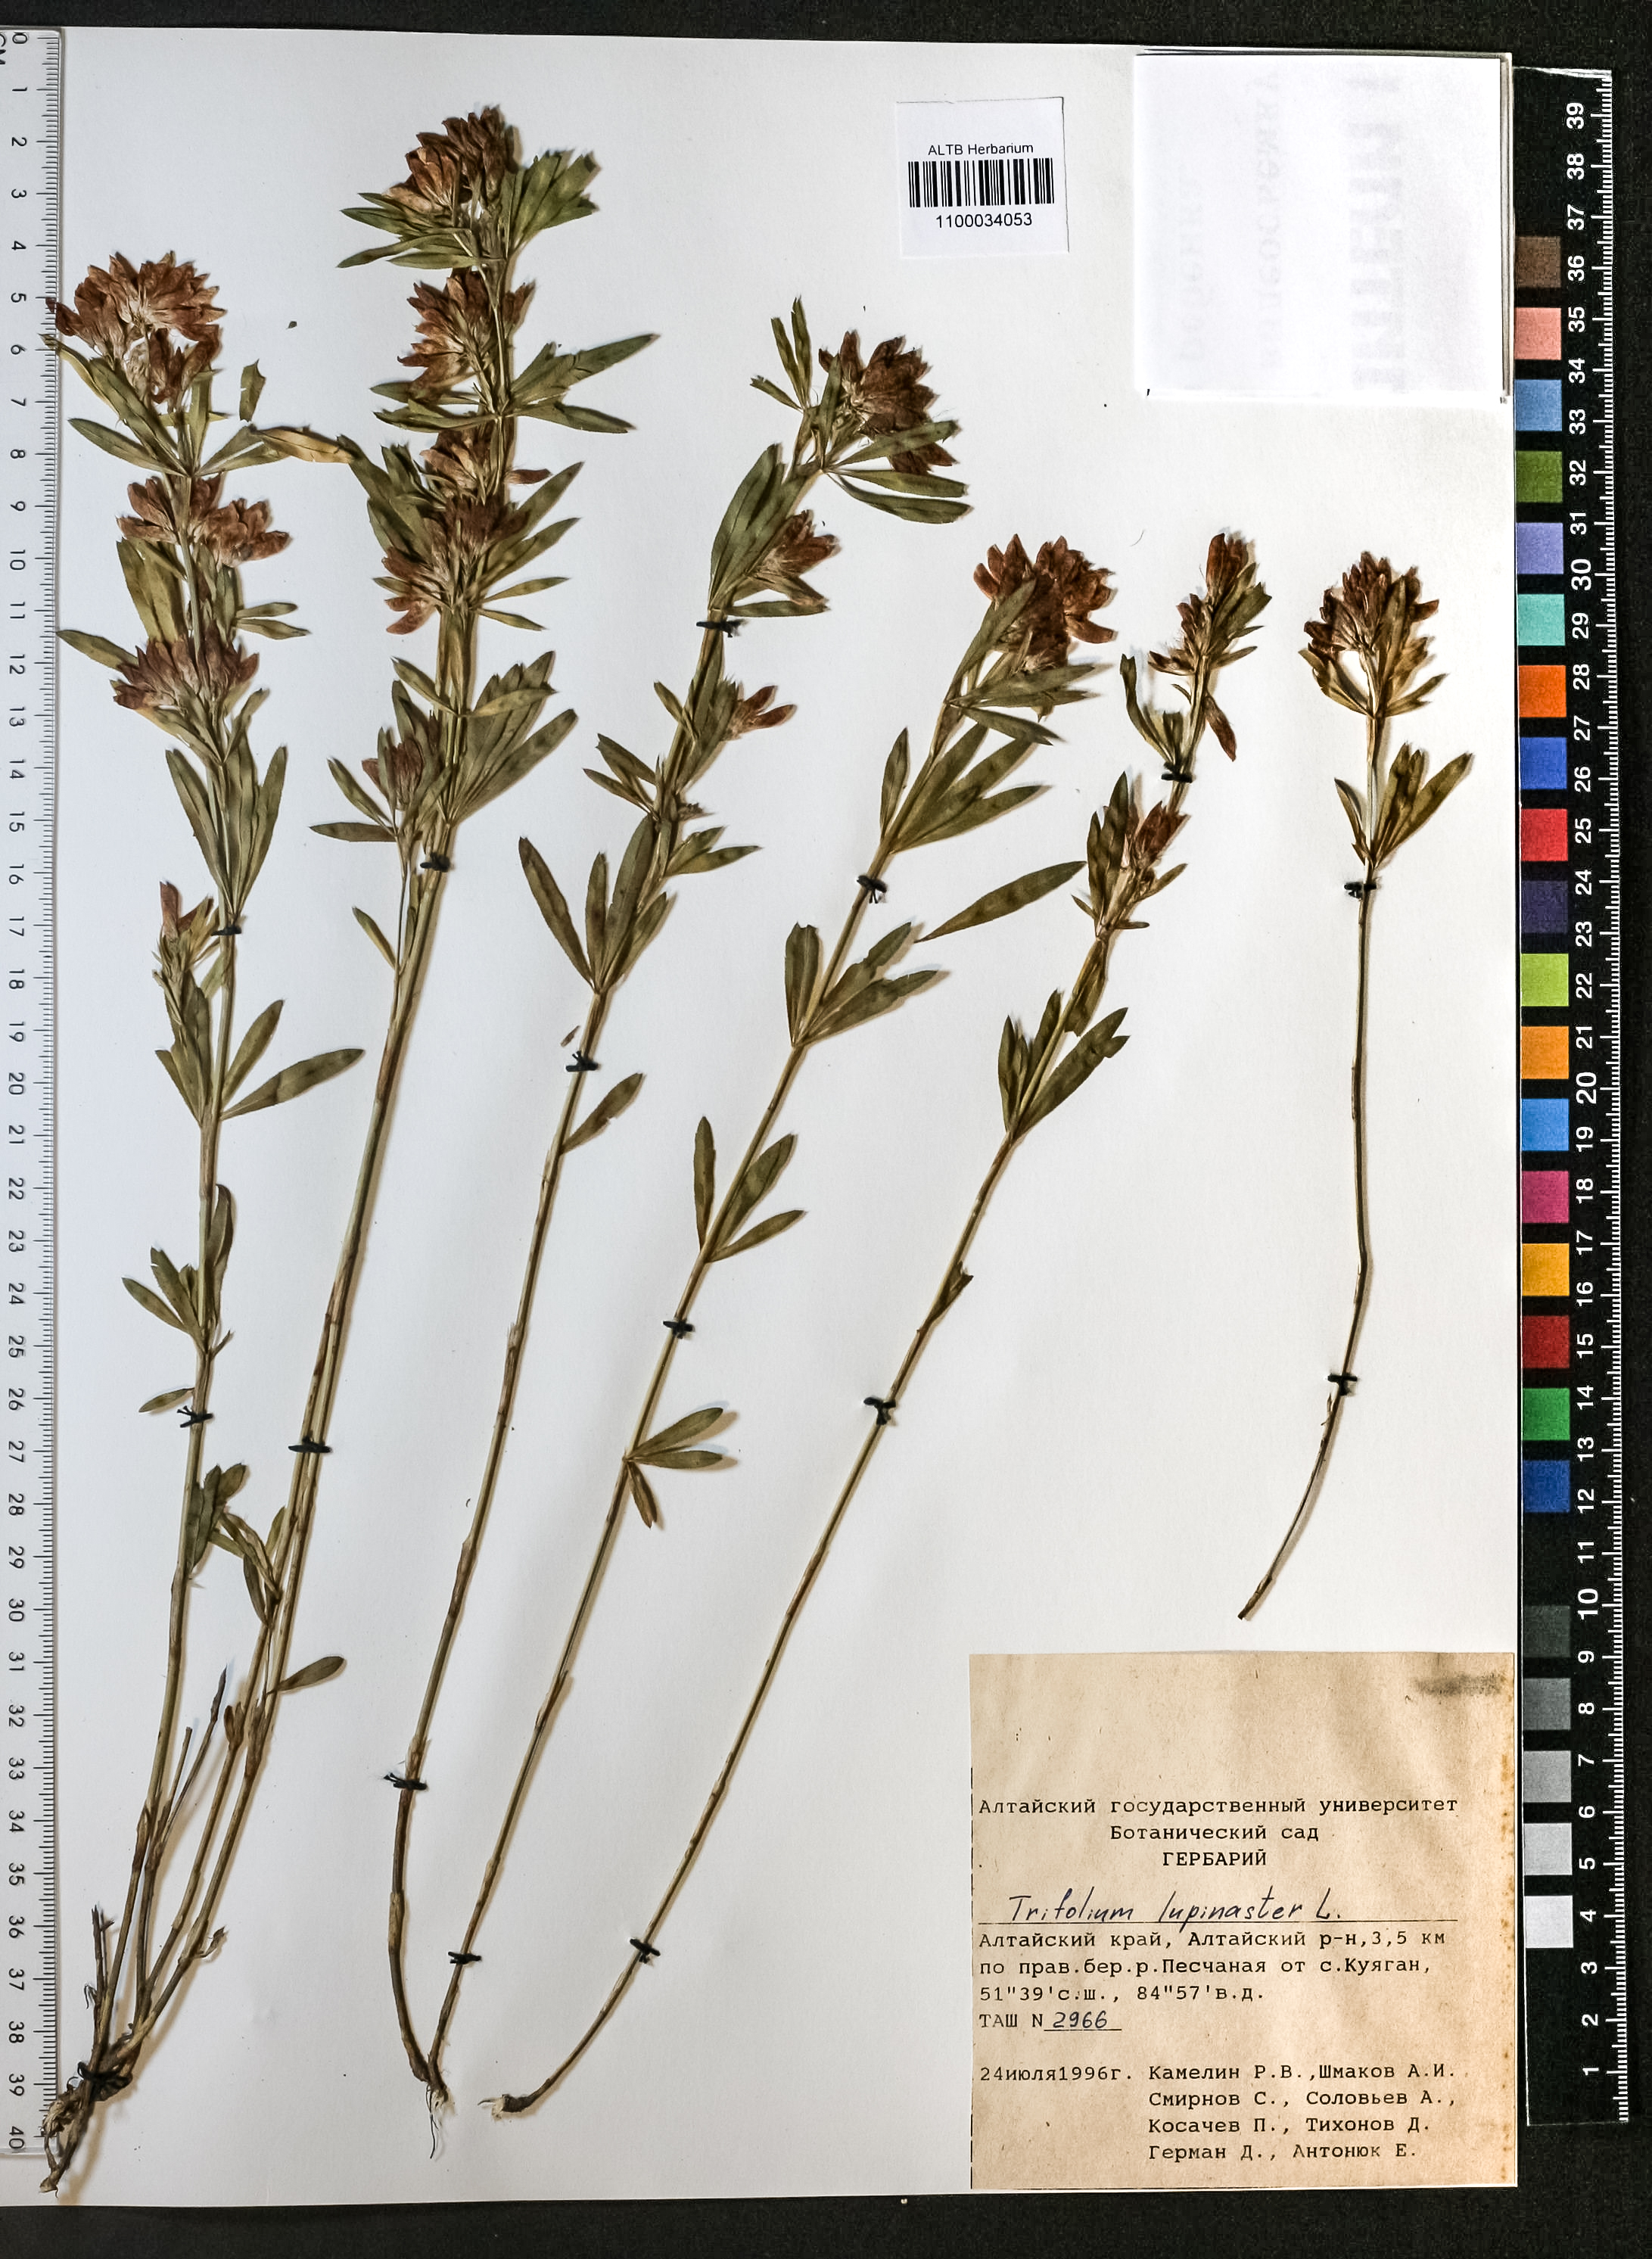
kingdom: Plantae
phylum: Tracheophyta
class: Magnoliopsida
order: Fabales
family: Fabaceae
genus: Trifolium
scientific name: Trifolium lupinaster
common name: Lupine clover
